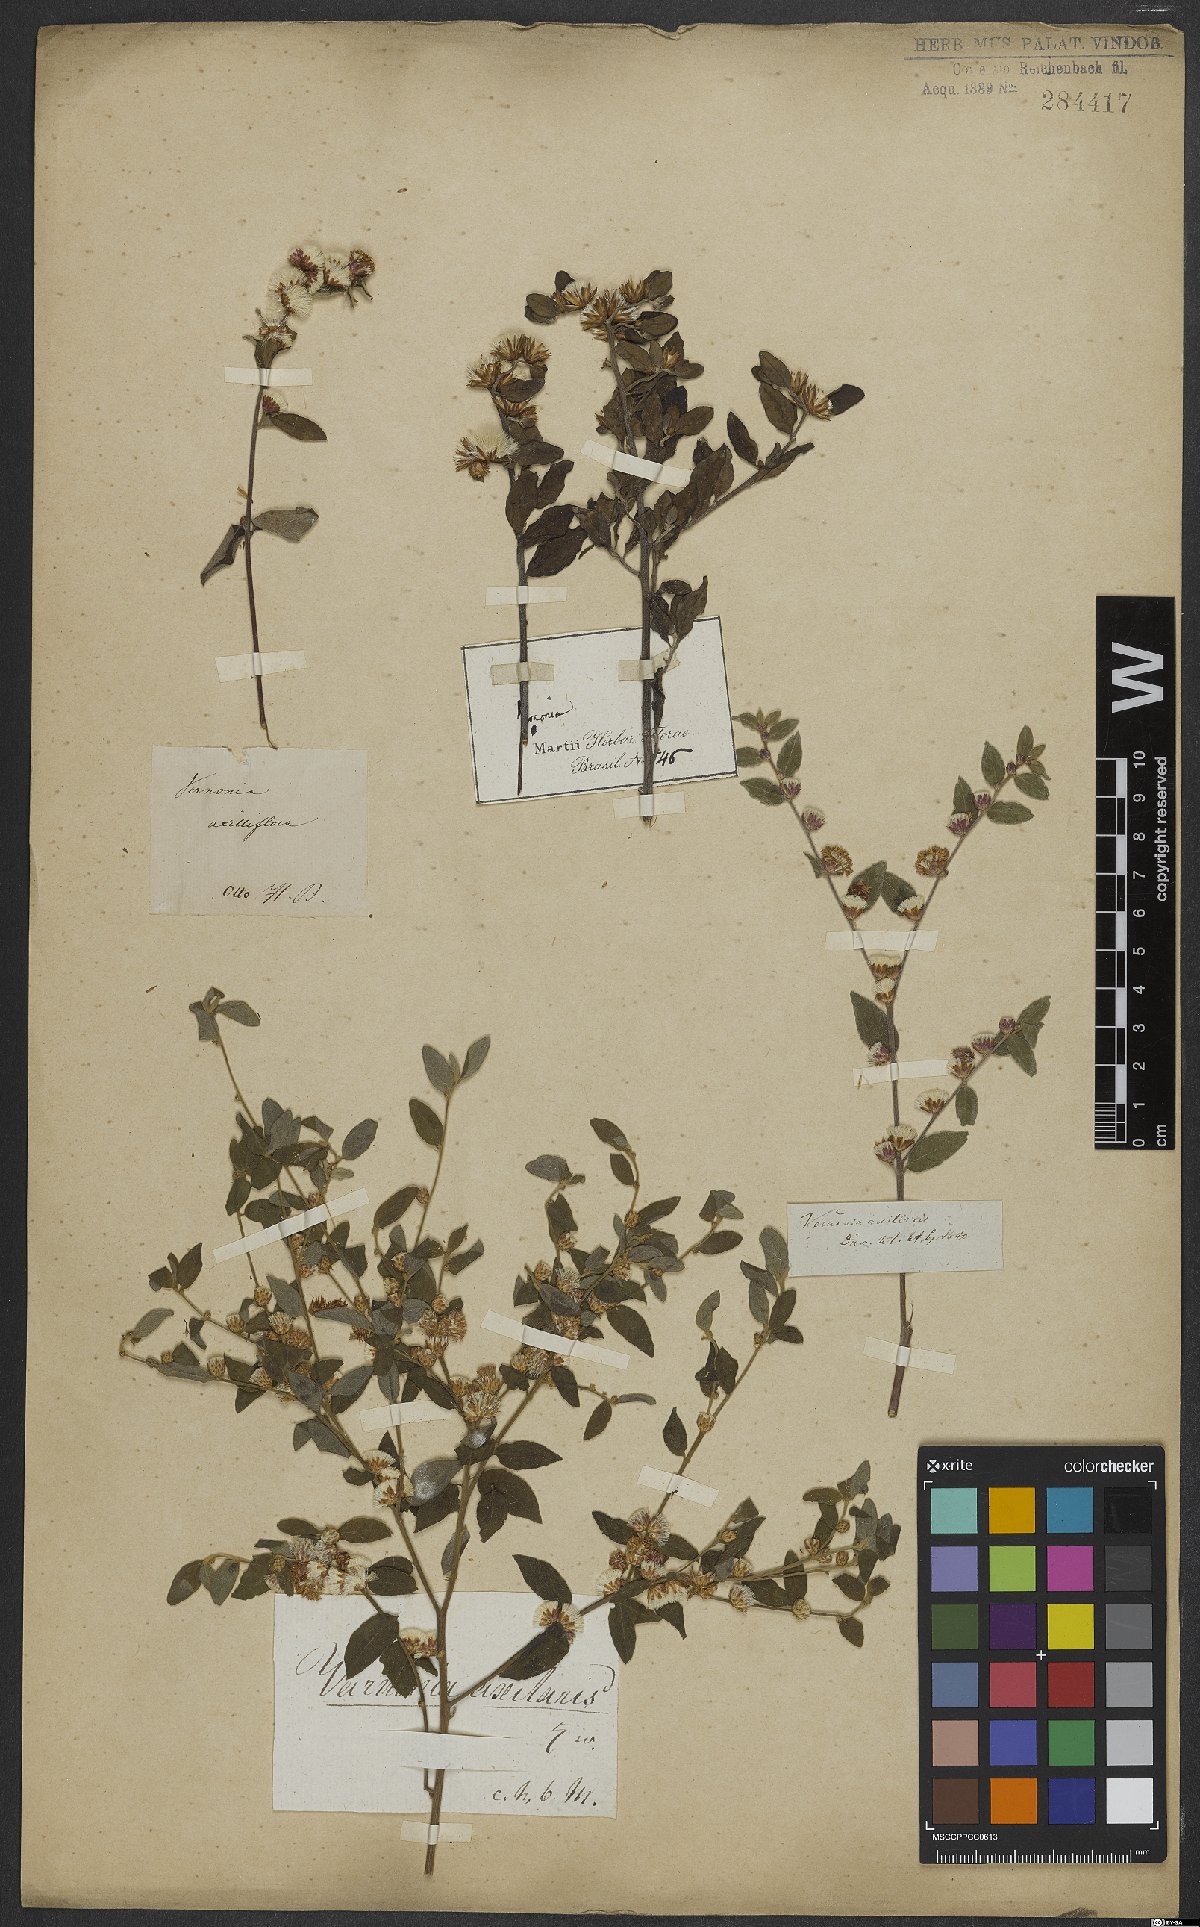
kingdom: Plantae
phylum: Tracheophyta
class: Magnoliopsida
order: Asterales
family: Asteraceae
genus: Lepidaploa
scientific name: Lepidaploa cotoneaster
